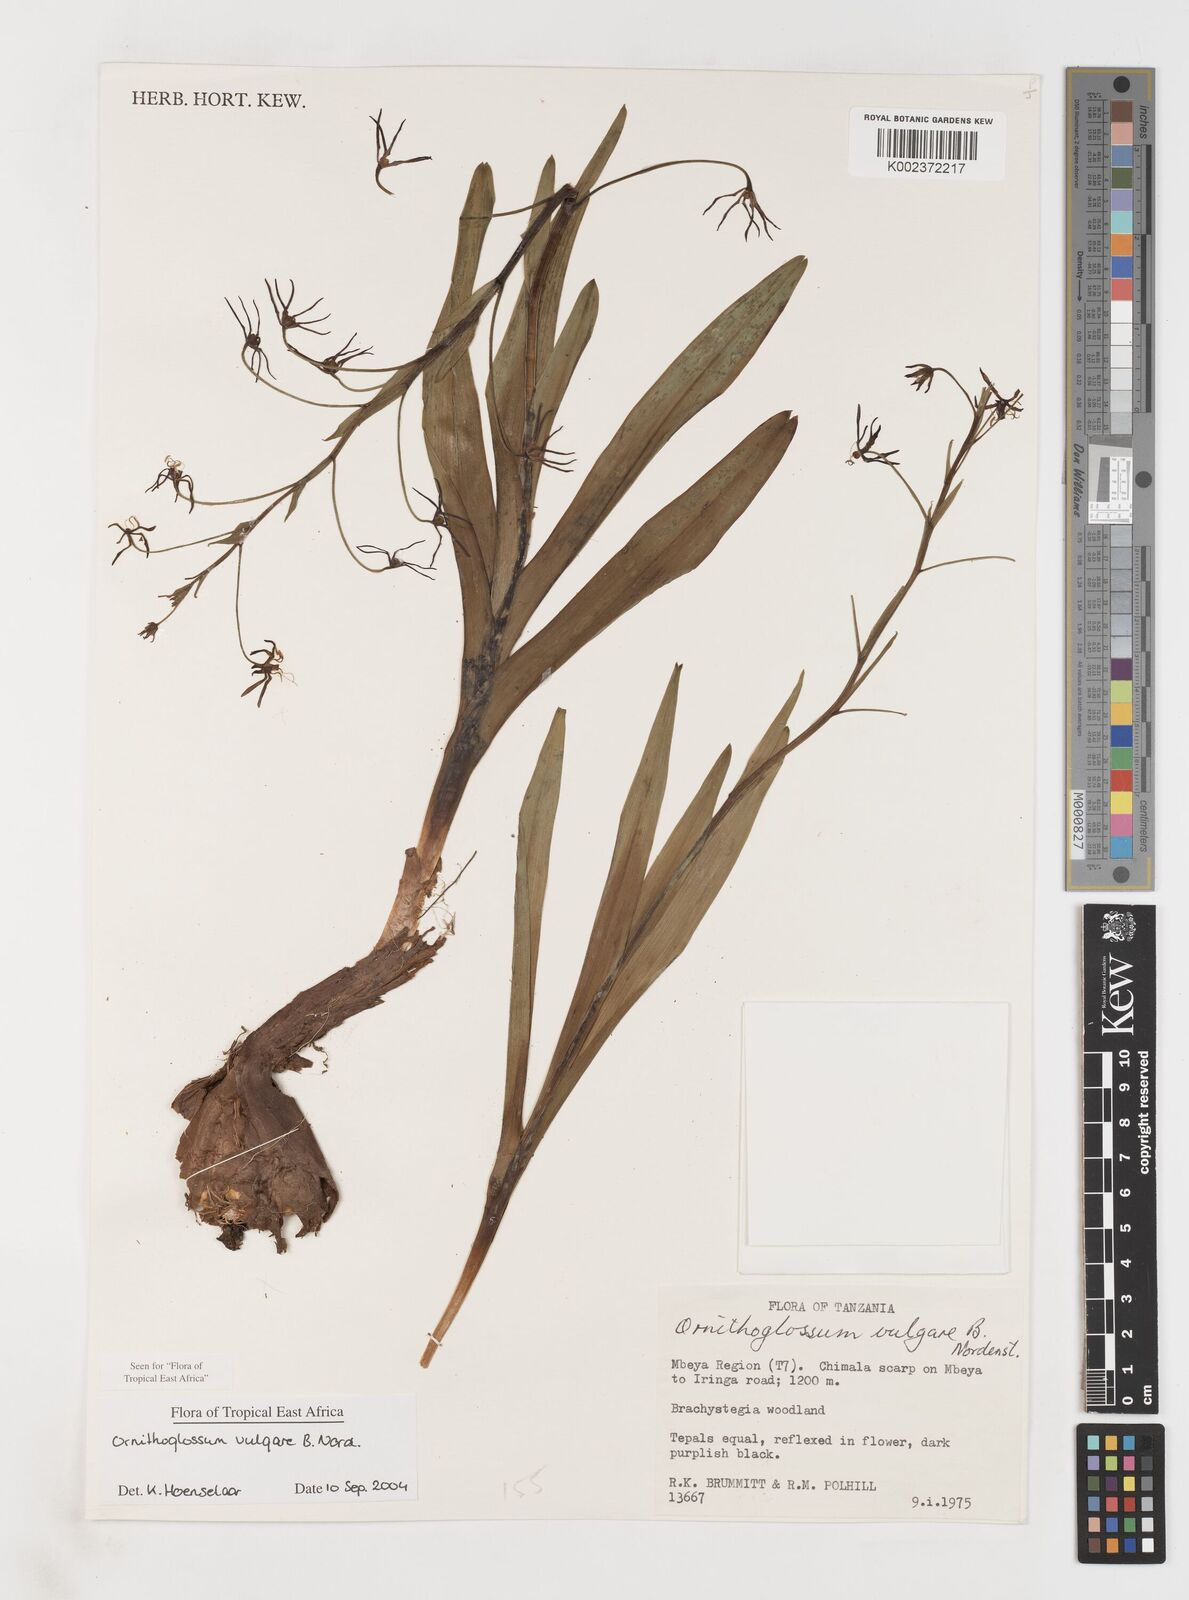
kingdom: Plantae
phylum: Tracheophyta
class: Liliopsida
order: Liliales
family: Colchicaceae
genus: Ornithoglossum
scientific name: Ornithoglossum vulgare
